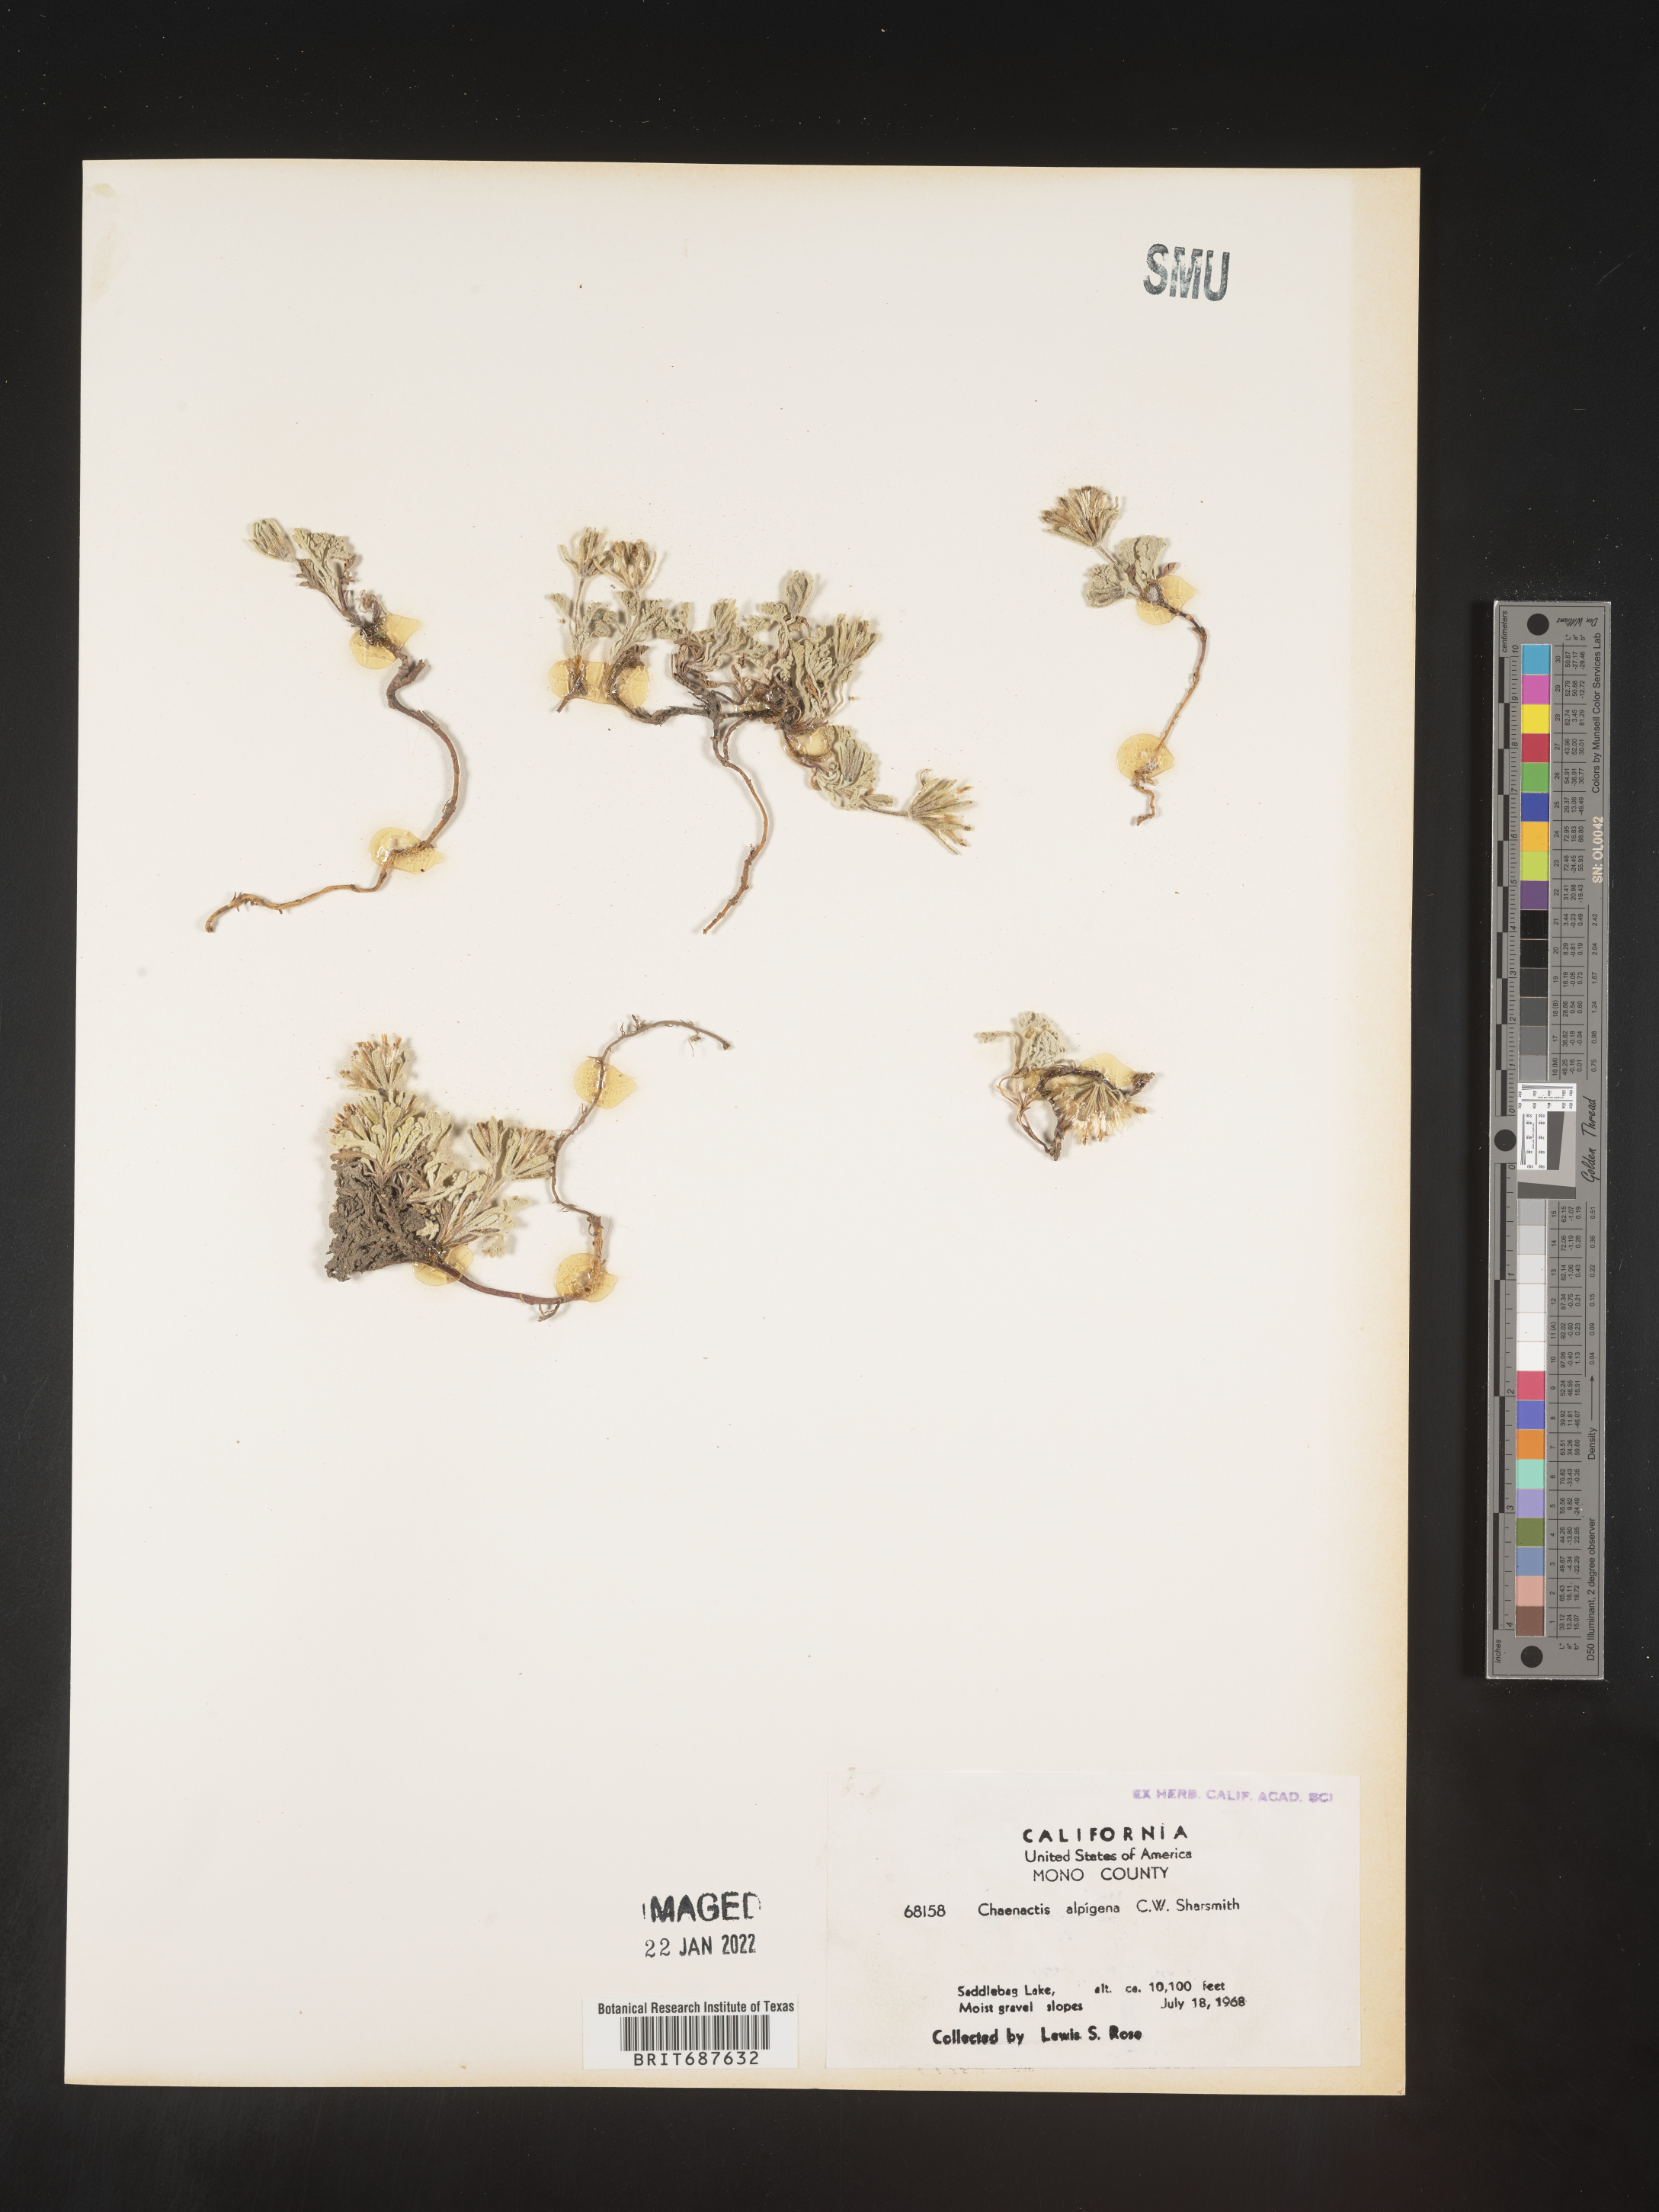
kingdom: Plantae
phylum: Tracheophyta
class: Magnoliopsida
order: Asterales
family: Asteraceae
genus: Chaenactis
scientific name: Chaenactis
